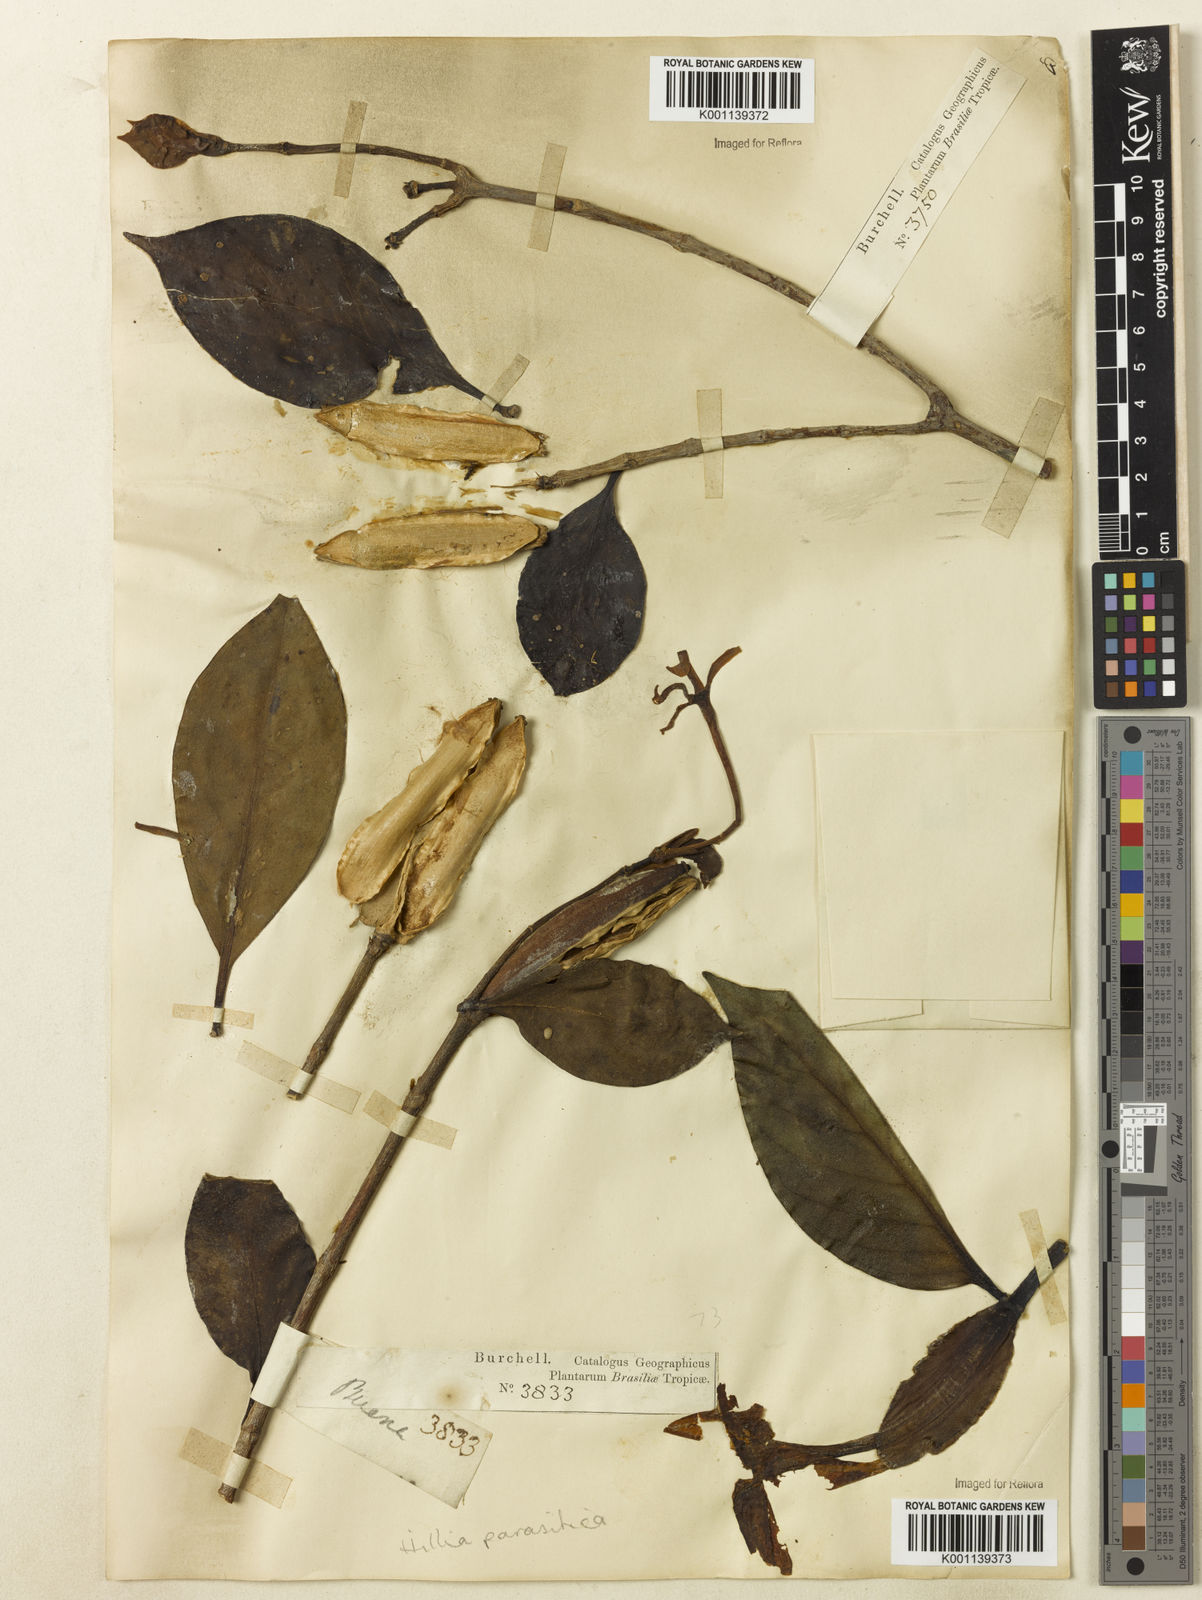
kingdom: Plantae
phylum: Tracheophyta
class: Magnoliopsida
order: Gentianales
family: Rubiaceae
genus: Hillia
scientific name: Hillia parasitica
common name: Morning star
